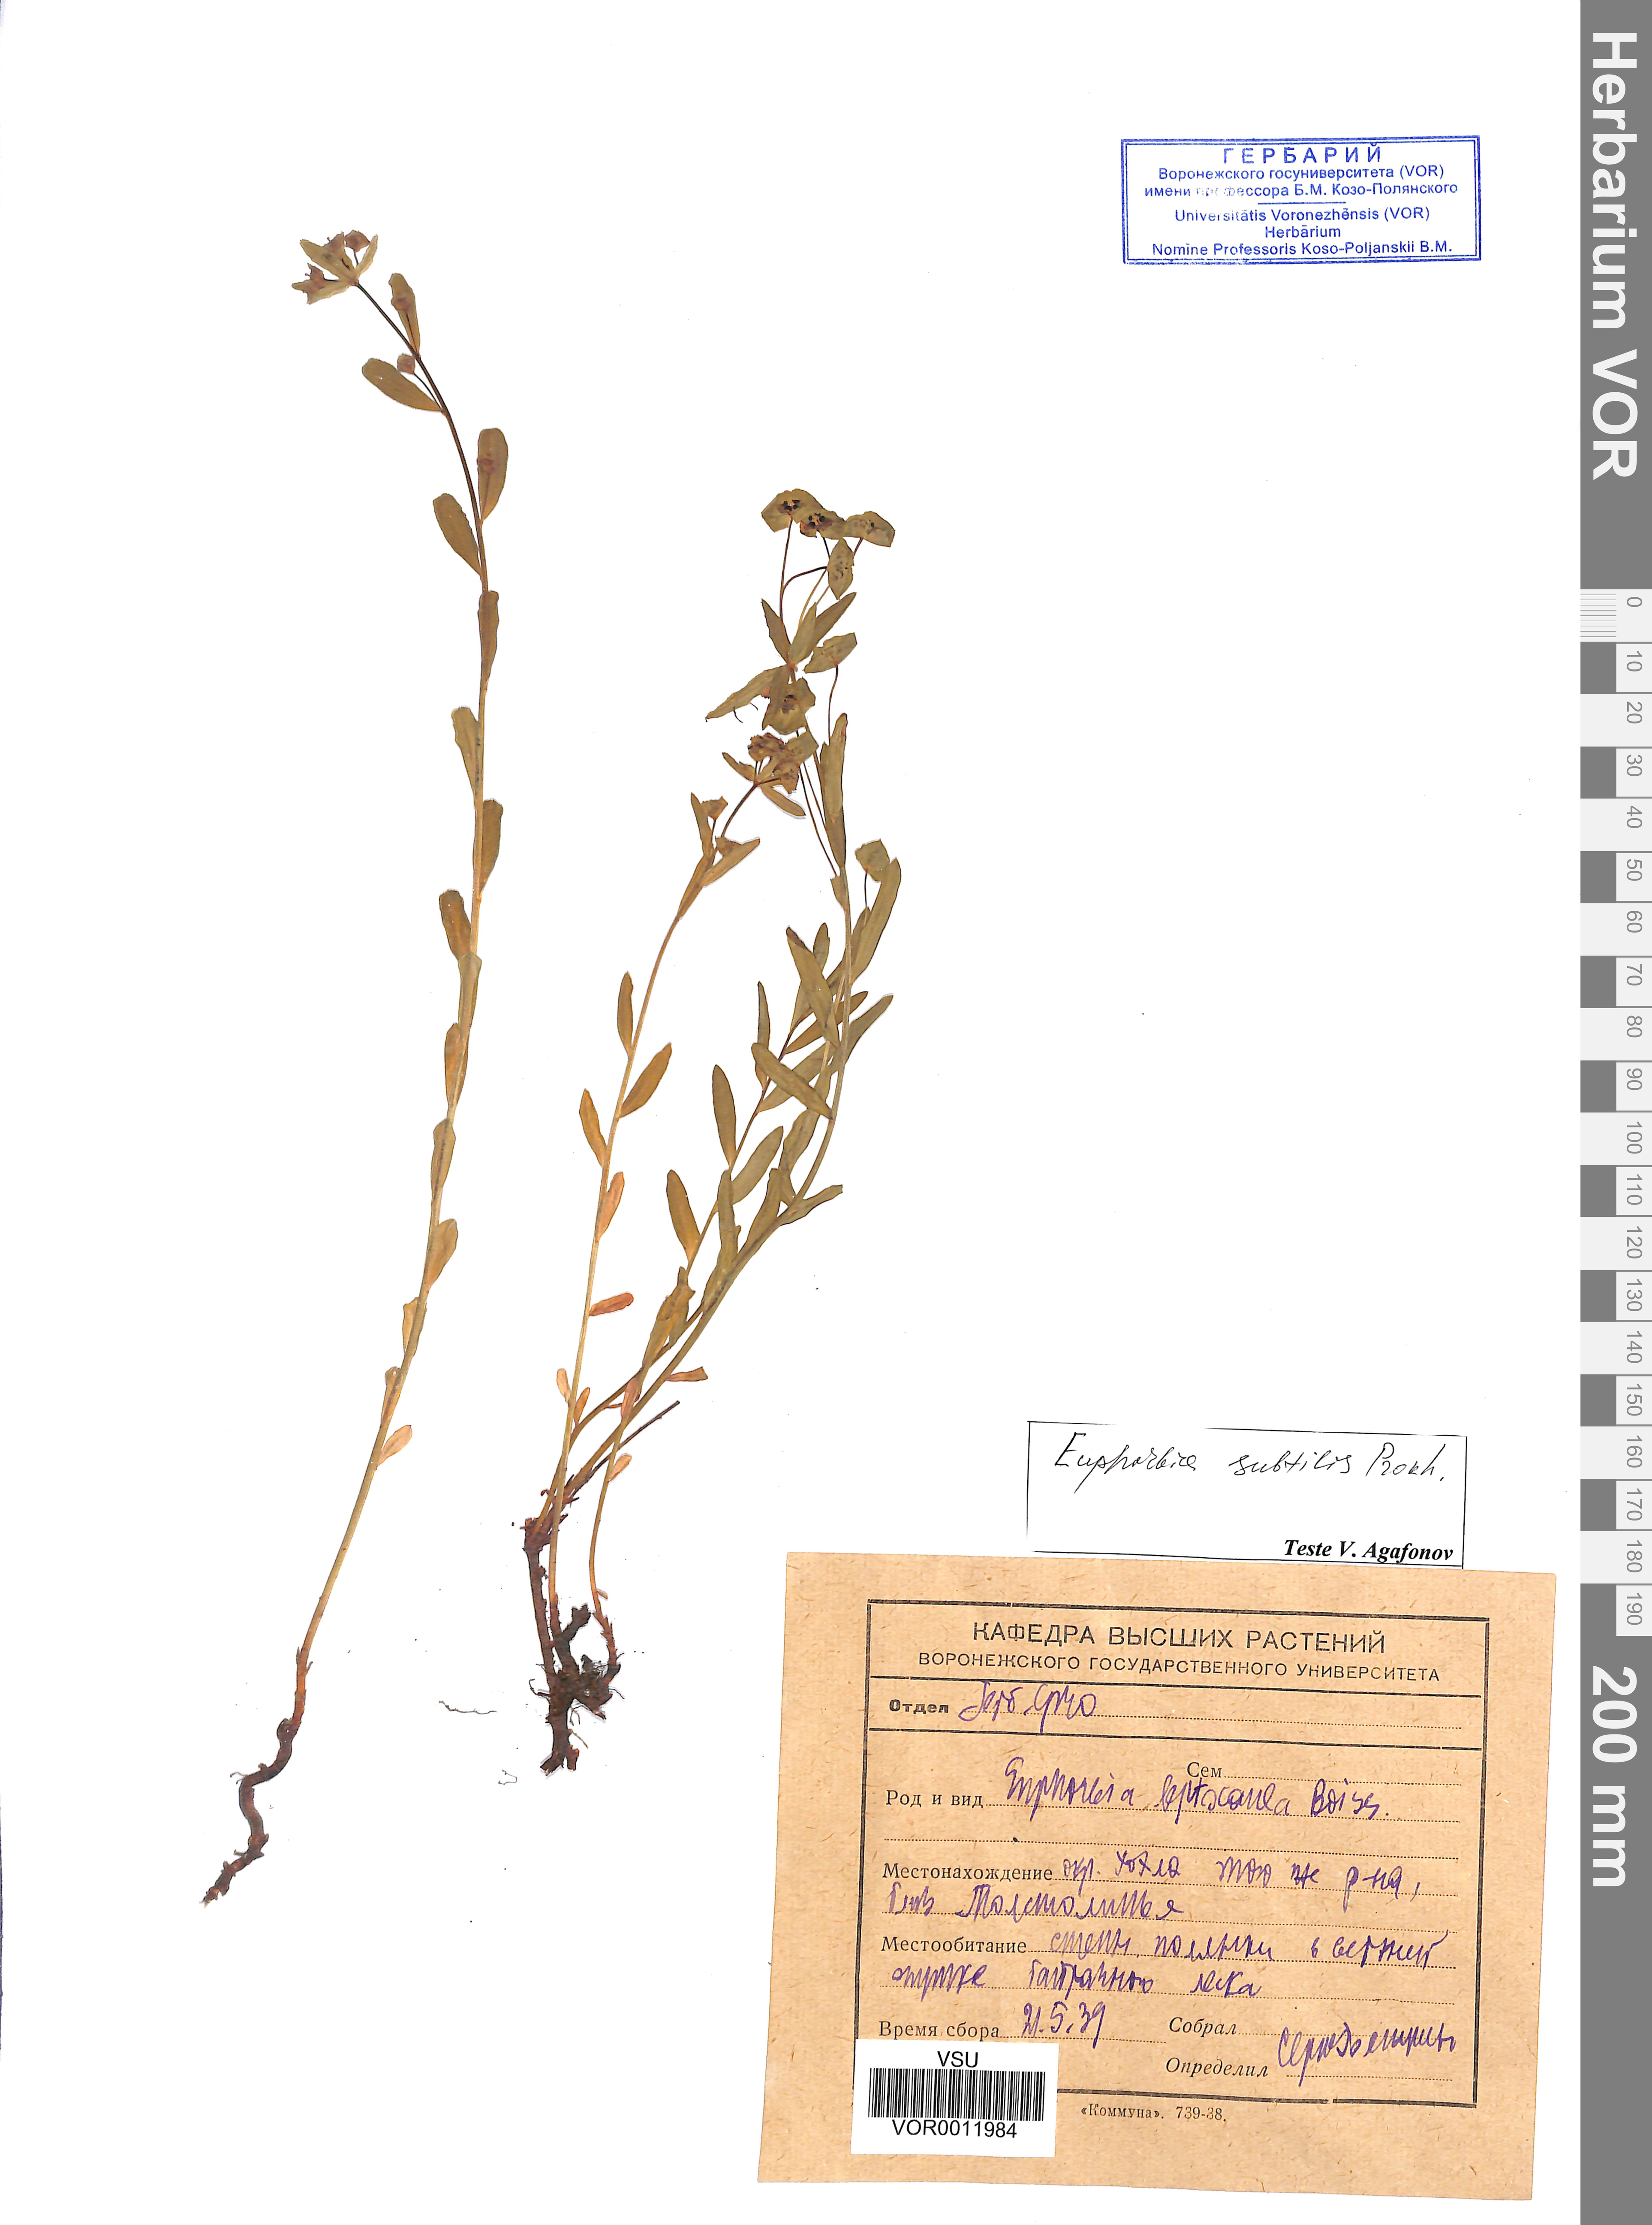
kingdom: Plantae
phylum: Tracheophyta
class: Magnoliopsida
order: Malpighiales
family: Euphorbiaceae
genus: Euphorbia
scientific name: Euphorbia microcarpa
